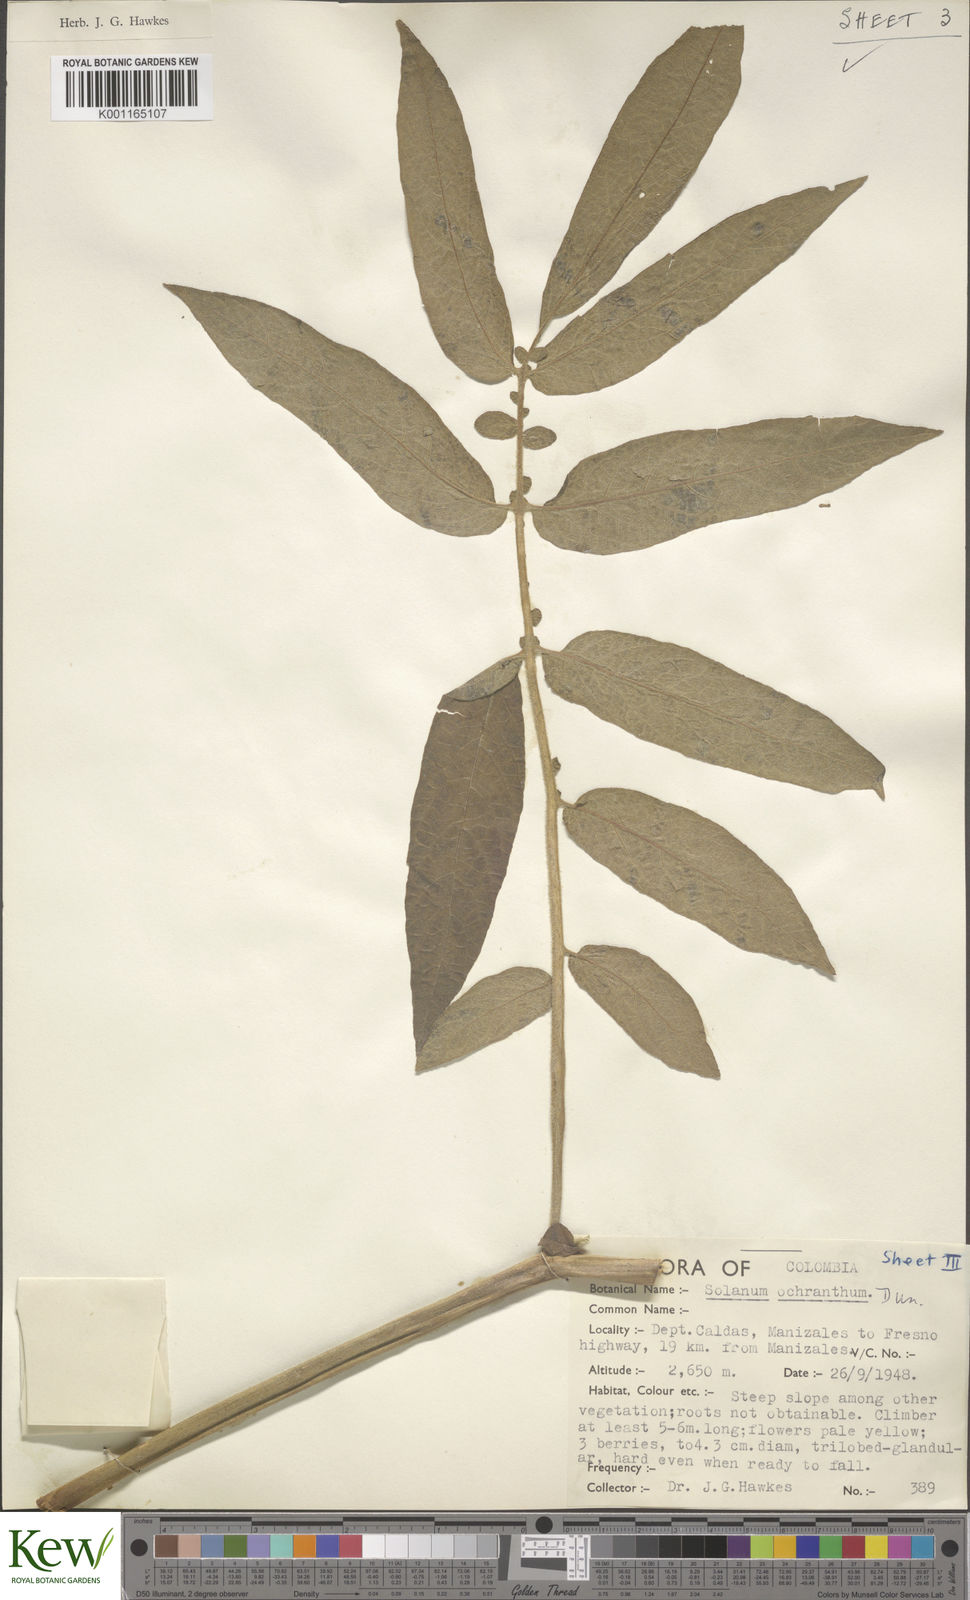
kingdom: Plantae
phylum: Tracheophyta
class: Magnoliopsida
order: Solanales
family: Solanaceae
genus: Solanum
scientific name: Solanum ochranthum
